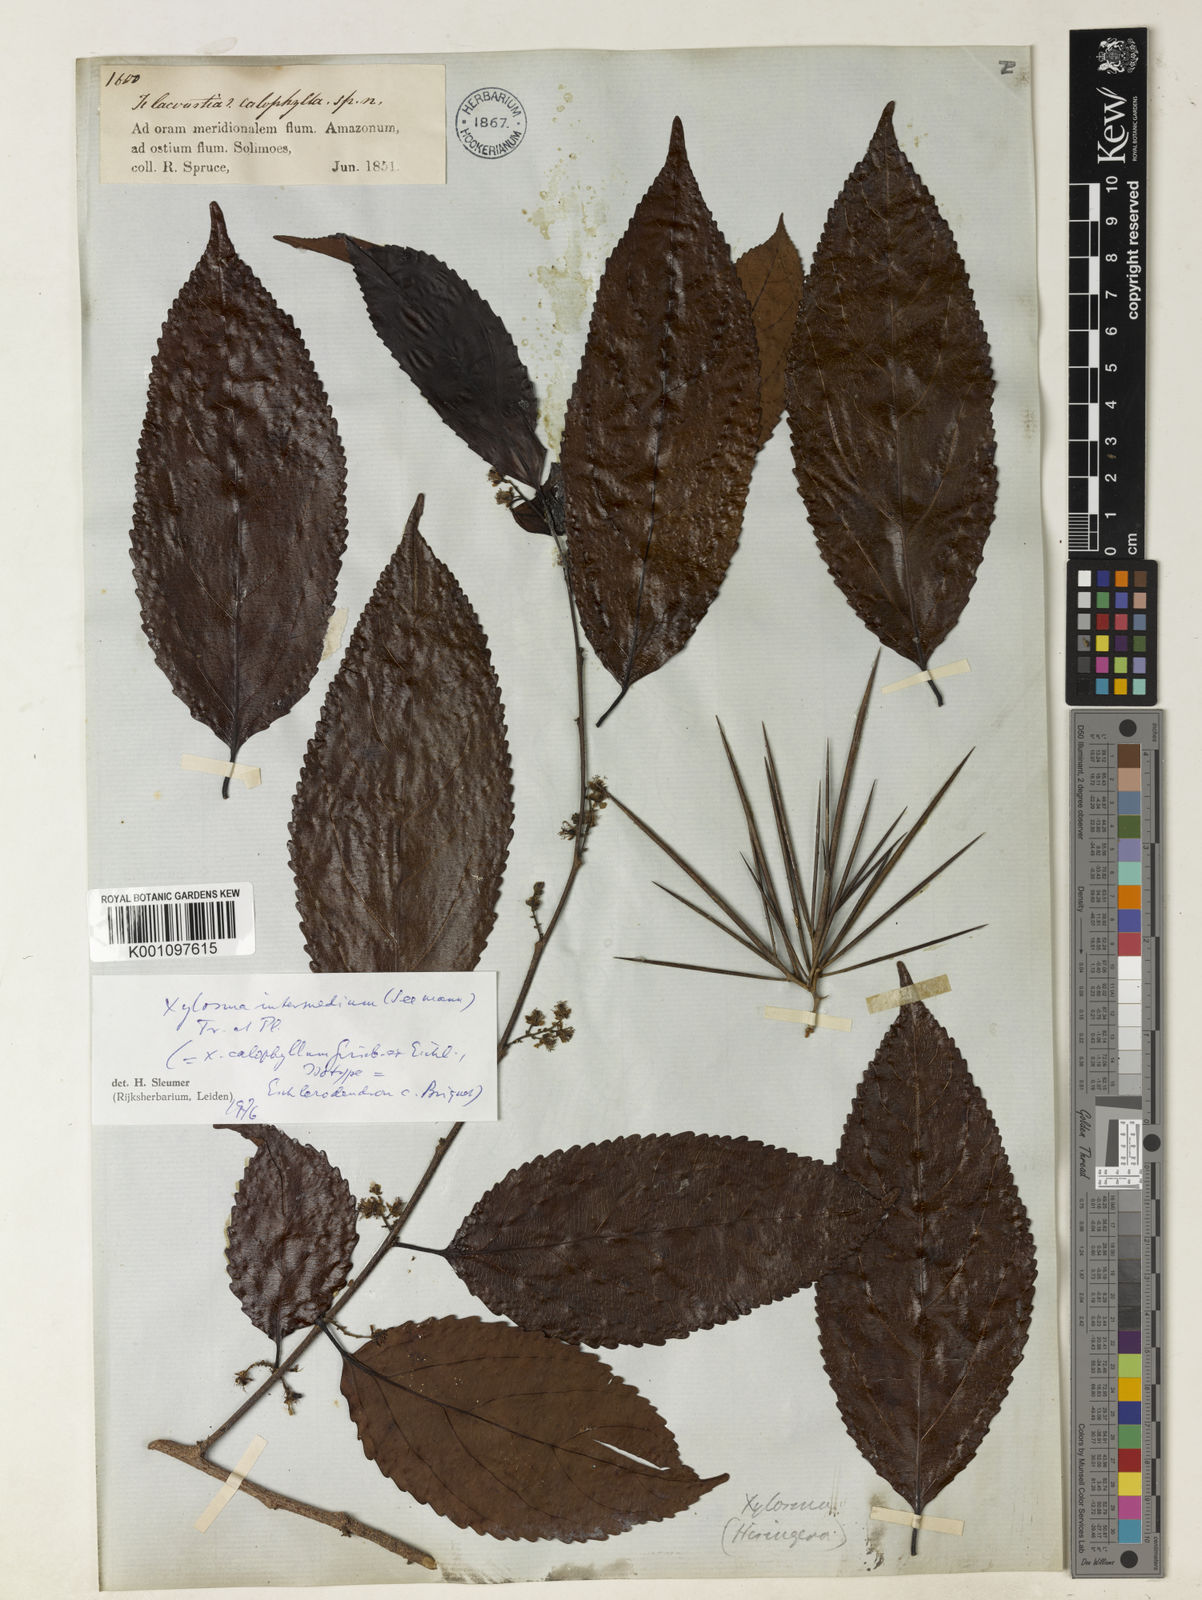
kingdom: Plantae
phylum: Tracheophyta
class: Magnoliopsida
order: Malpighiales
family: Salicaceae
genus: Xylosma
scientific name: Xylosma
